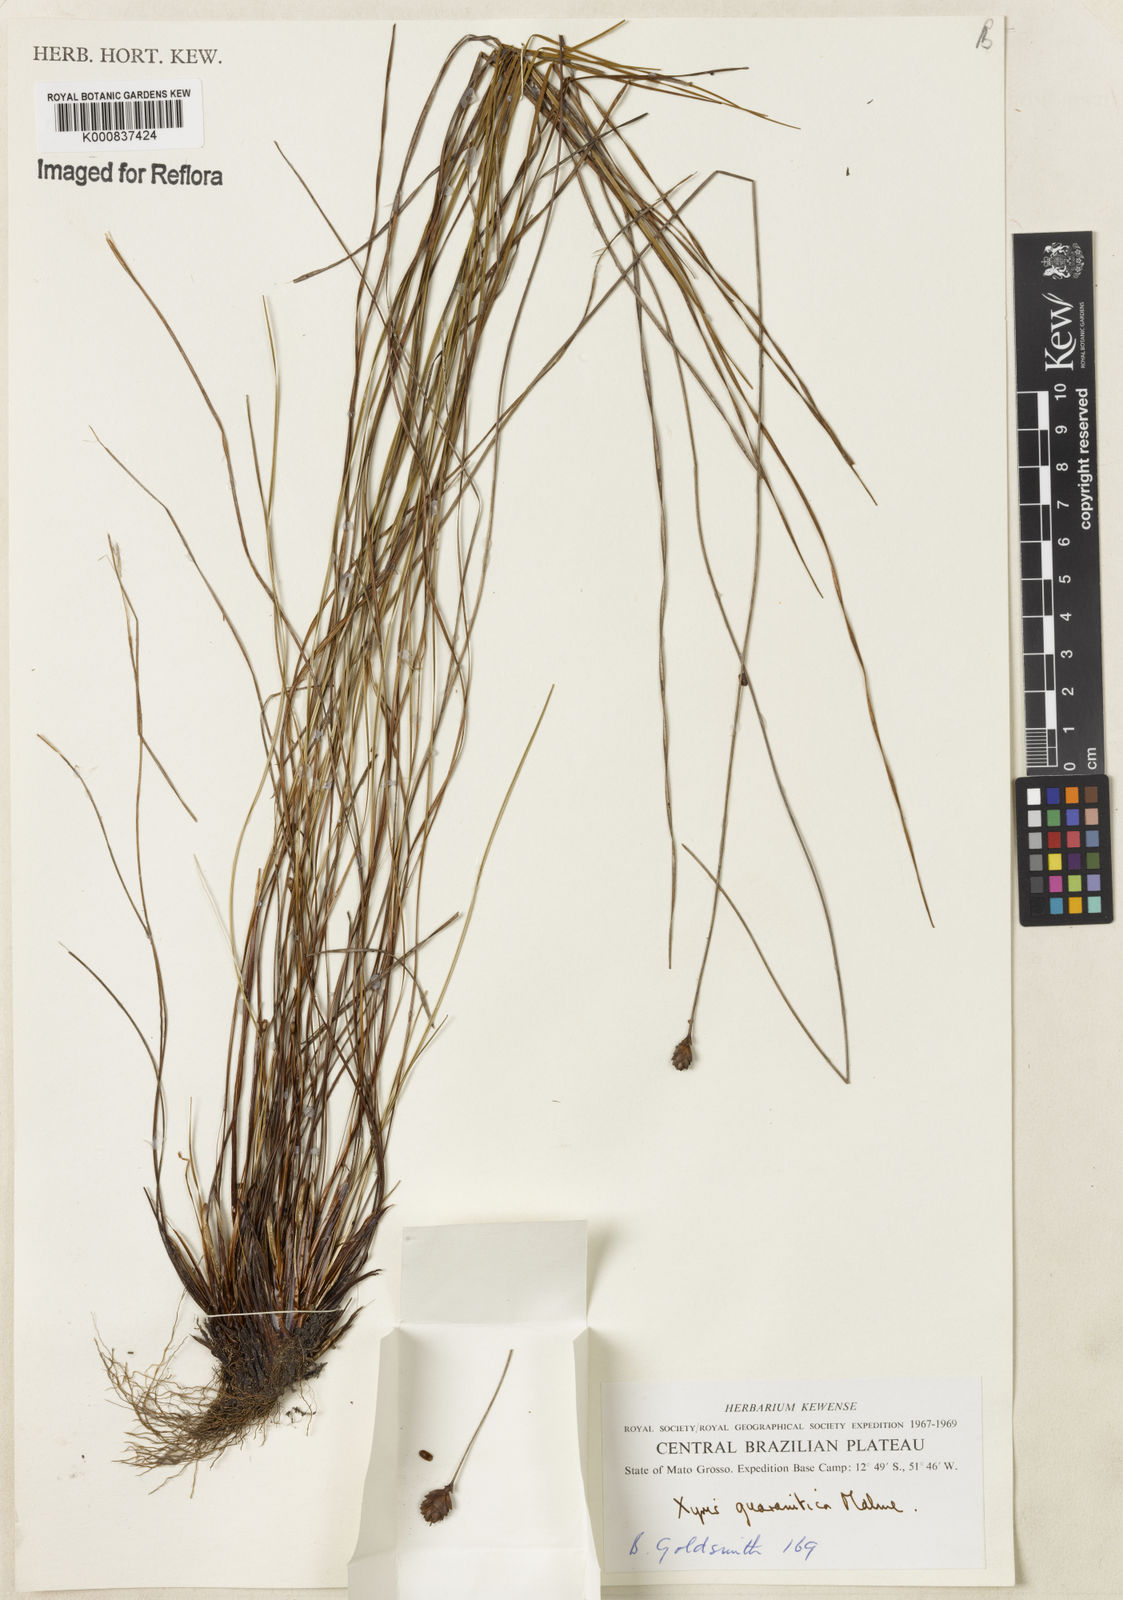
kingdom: Plantae
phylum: Tracheophyta
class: Liliopsida
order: Poales
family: Xyridaceae
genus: Xyris
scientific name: Xyris guaranitica
